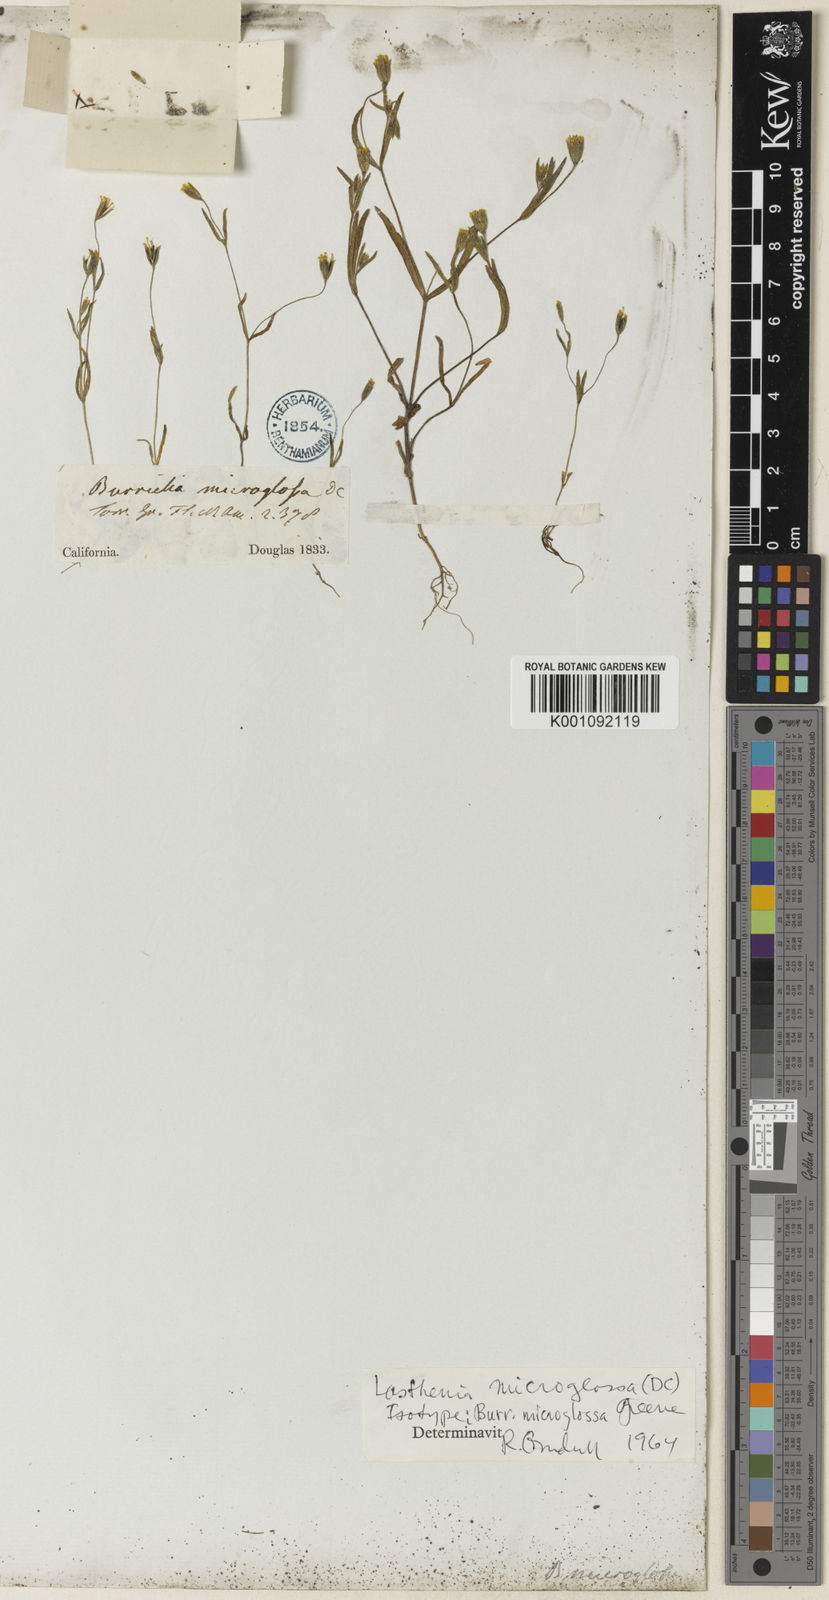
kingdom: Plantae
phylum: Tracheophyta
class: Magnoliopsida
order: Asterales
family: Asteraceae
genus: Lasthenia
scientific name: Lasthenia microglossa
